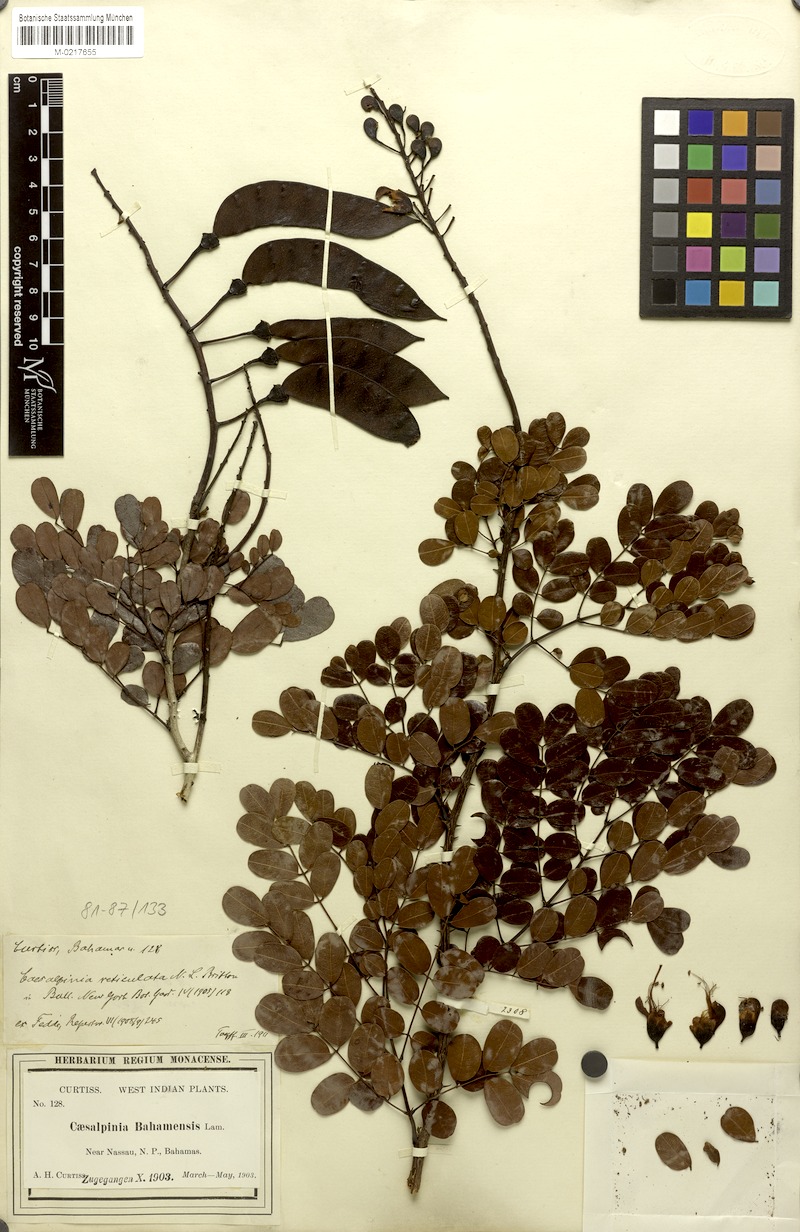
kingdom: Plantae
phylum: Tracheophyta
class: Magnoliopsida
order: Fabales
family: Fabaceae
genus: Caesalpinia
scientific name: Caesalpinia bahamensis
